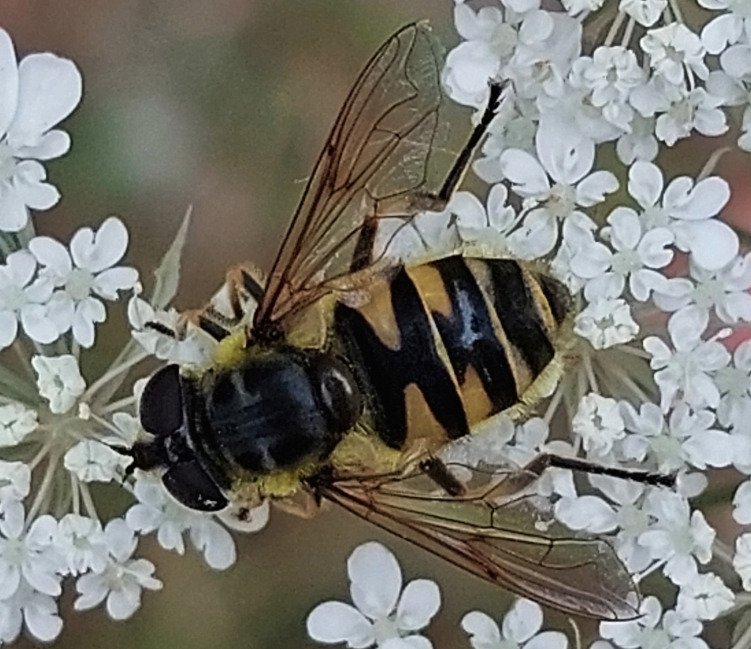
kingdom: Animalia
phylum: Arthropoda
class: Insecta
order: Diptera
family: Syrphidae
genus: Myathropa
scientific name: Myathropa florea
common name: Dødningehoved-svirreflue
